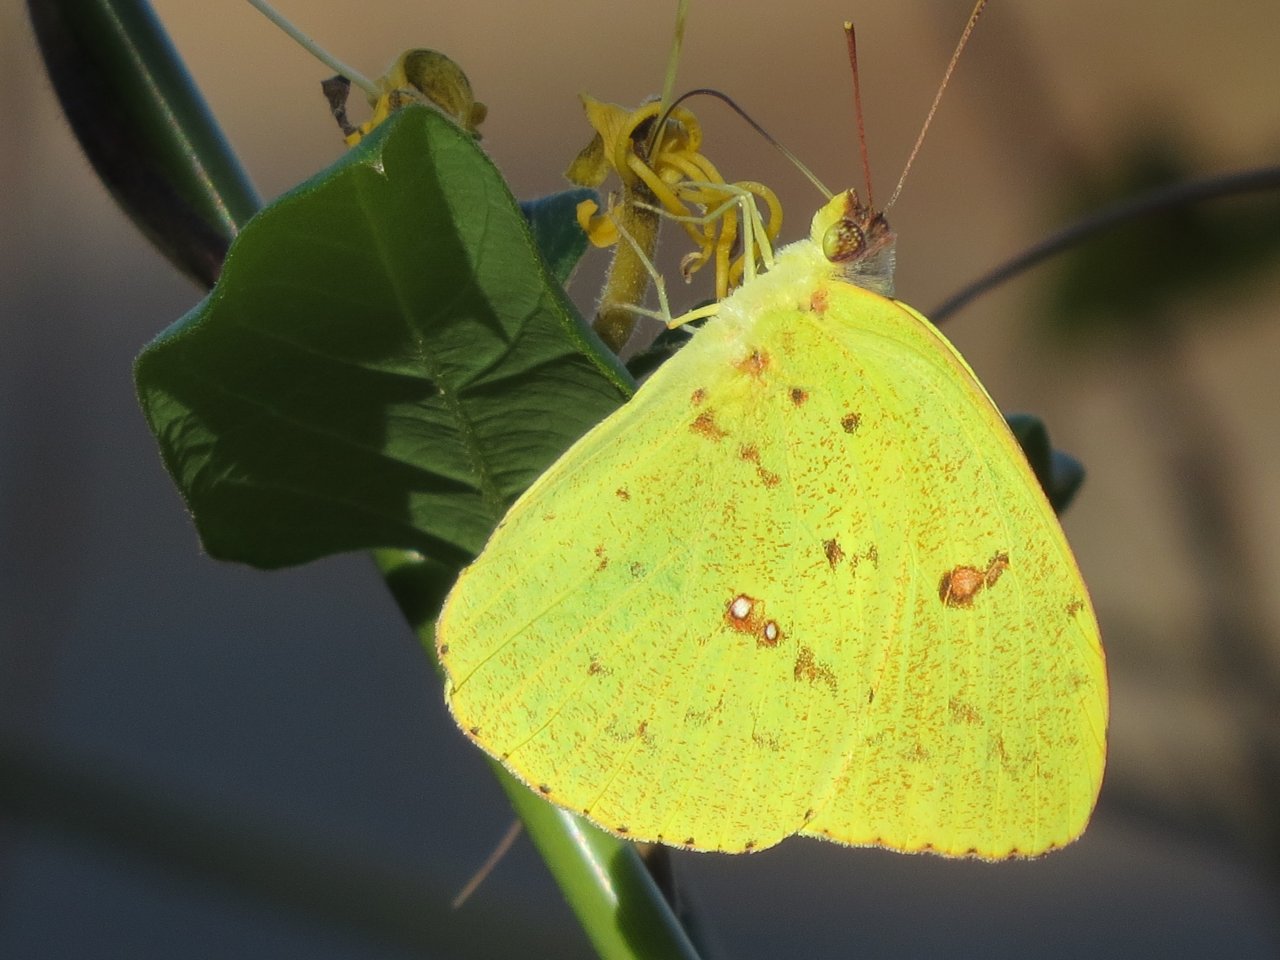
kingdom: Animalia
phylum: Arthropoda
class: Insecta
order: Lepidoptera
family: Pieridae
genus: Phoebis
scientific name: Phoebis sennae
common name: Cloudless Sulphur
